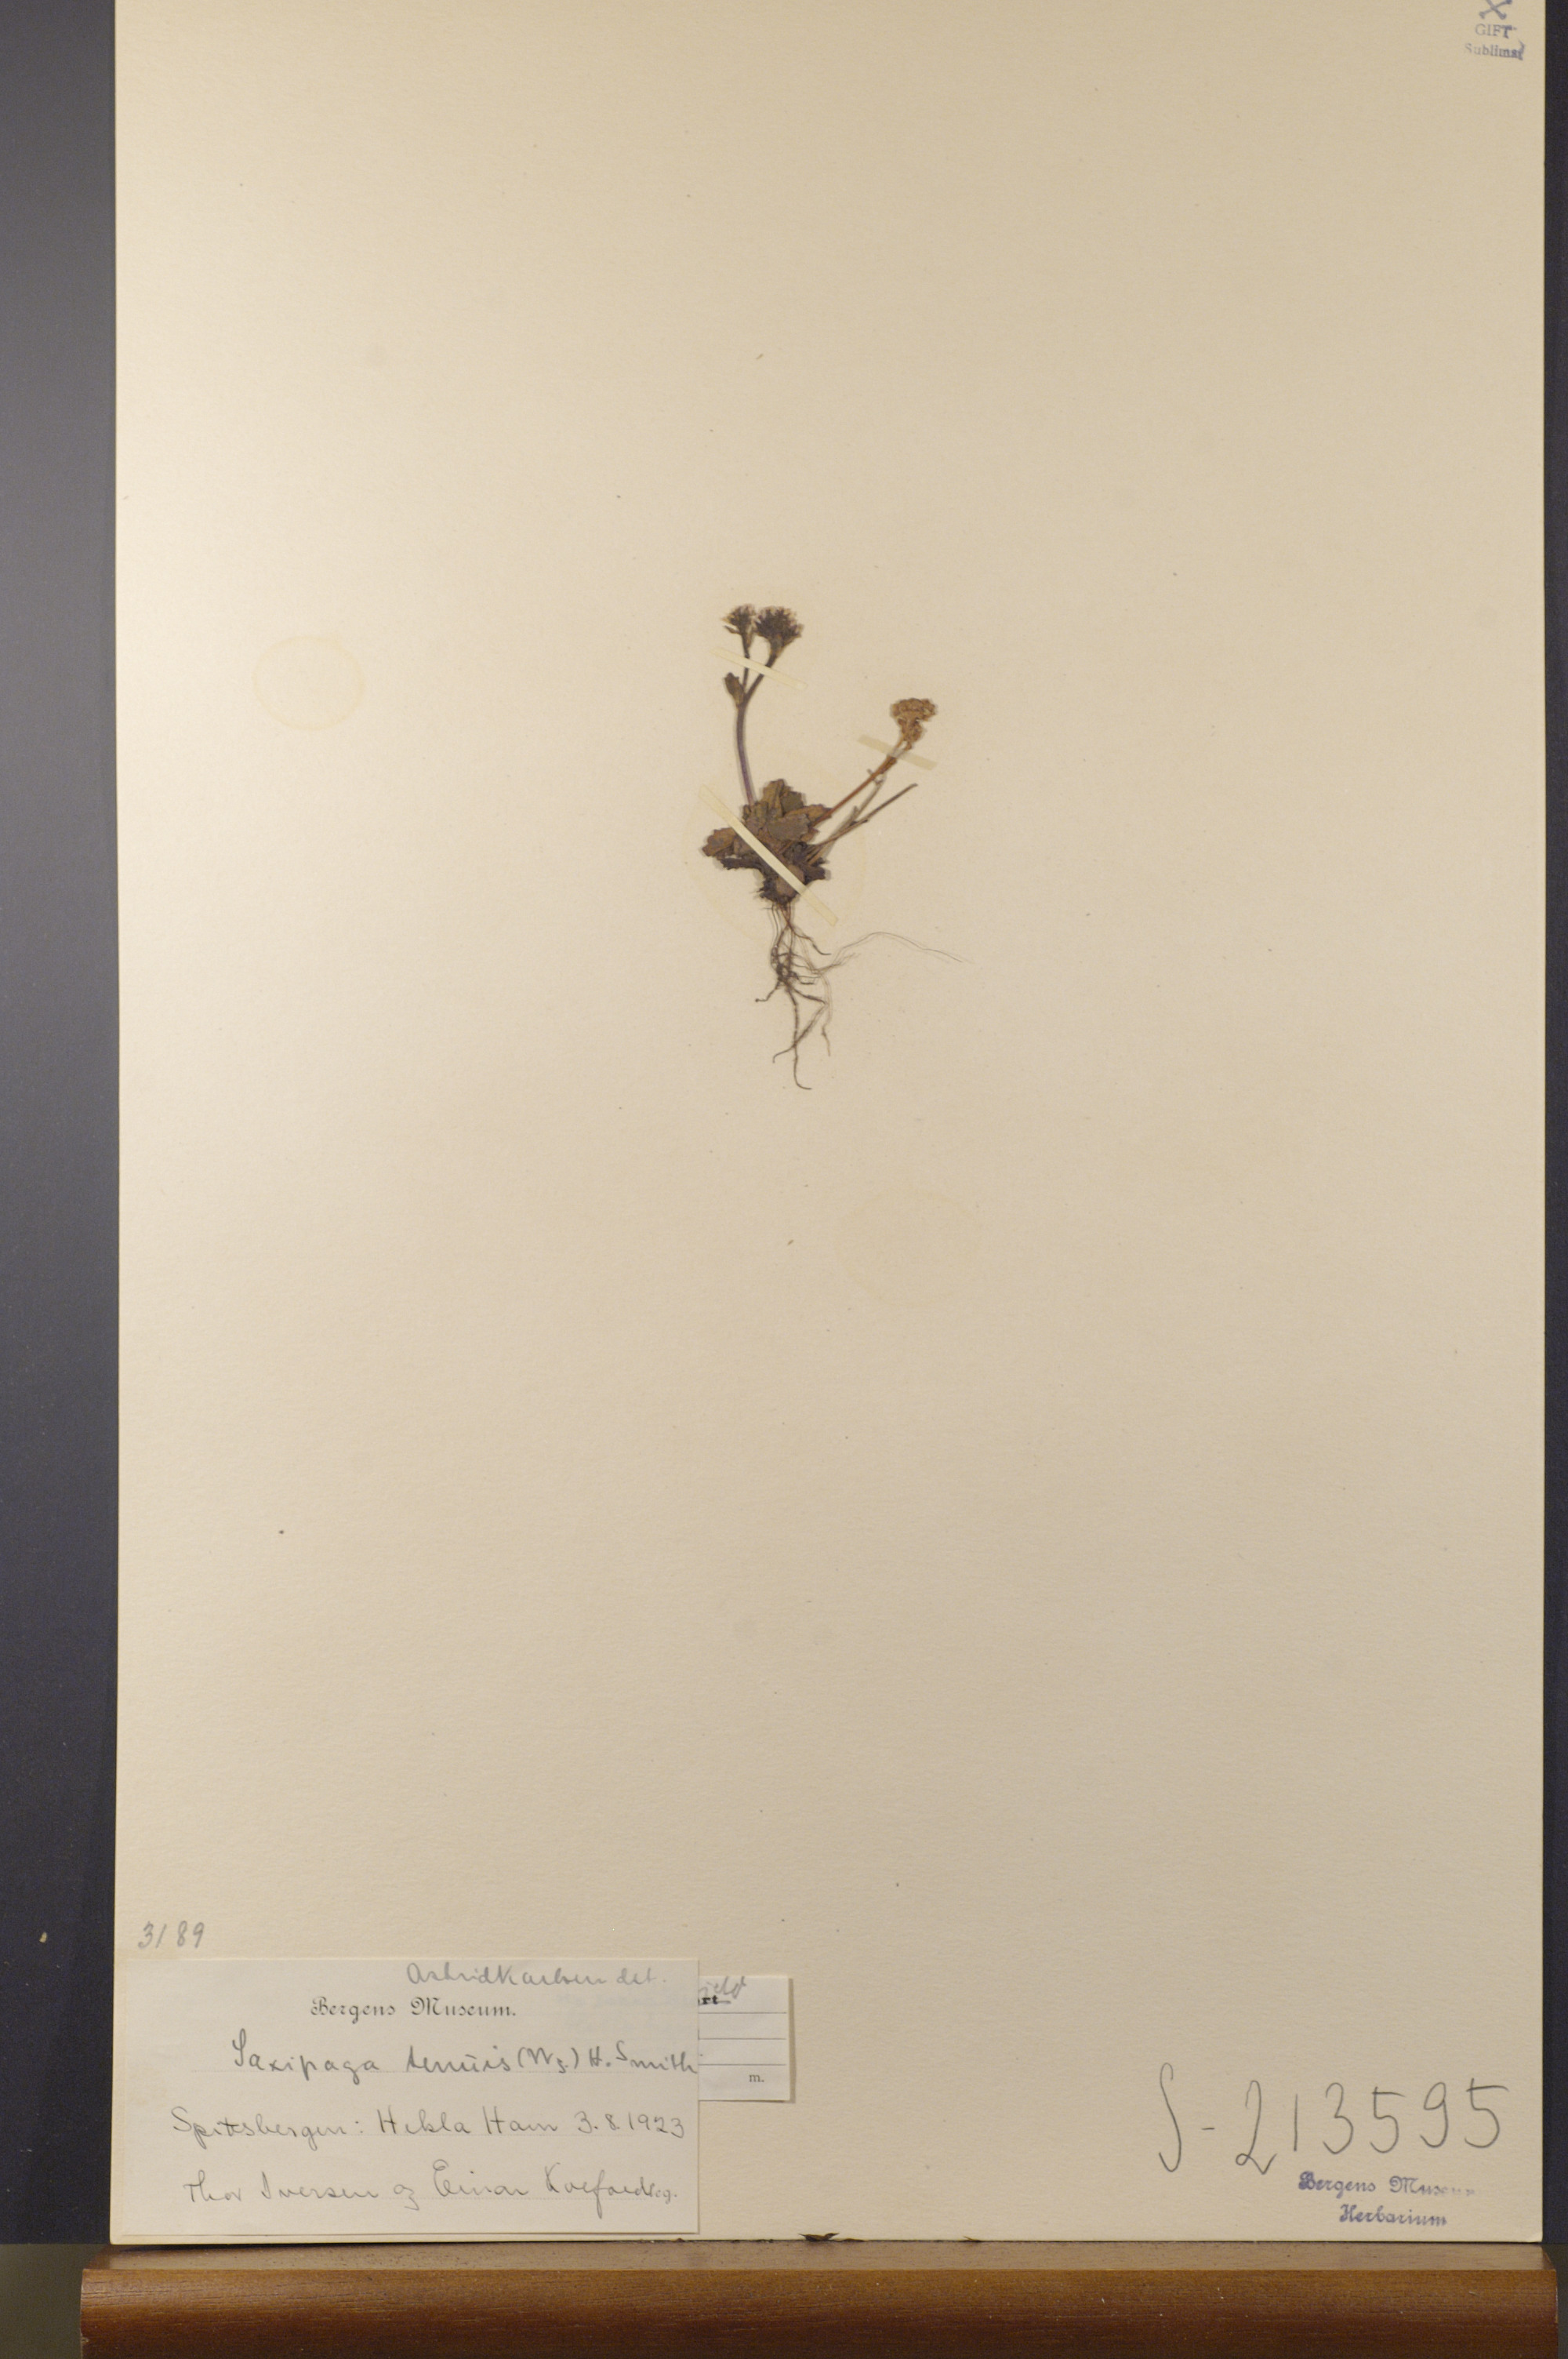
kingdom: Plantae
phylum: Tracheophyta
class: Magnoliopsida
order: Saxifragales
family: Saxifragaceae
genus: Micranthes
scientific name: Micranthes tenuis
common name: Ottertail pass saxifrage
